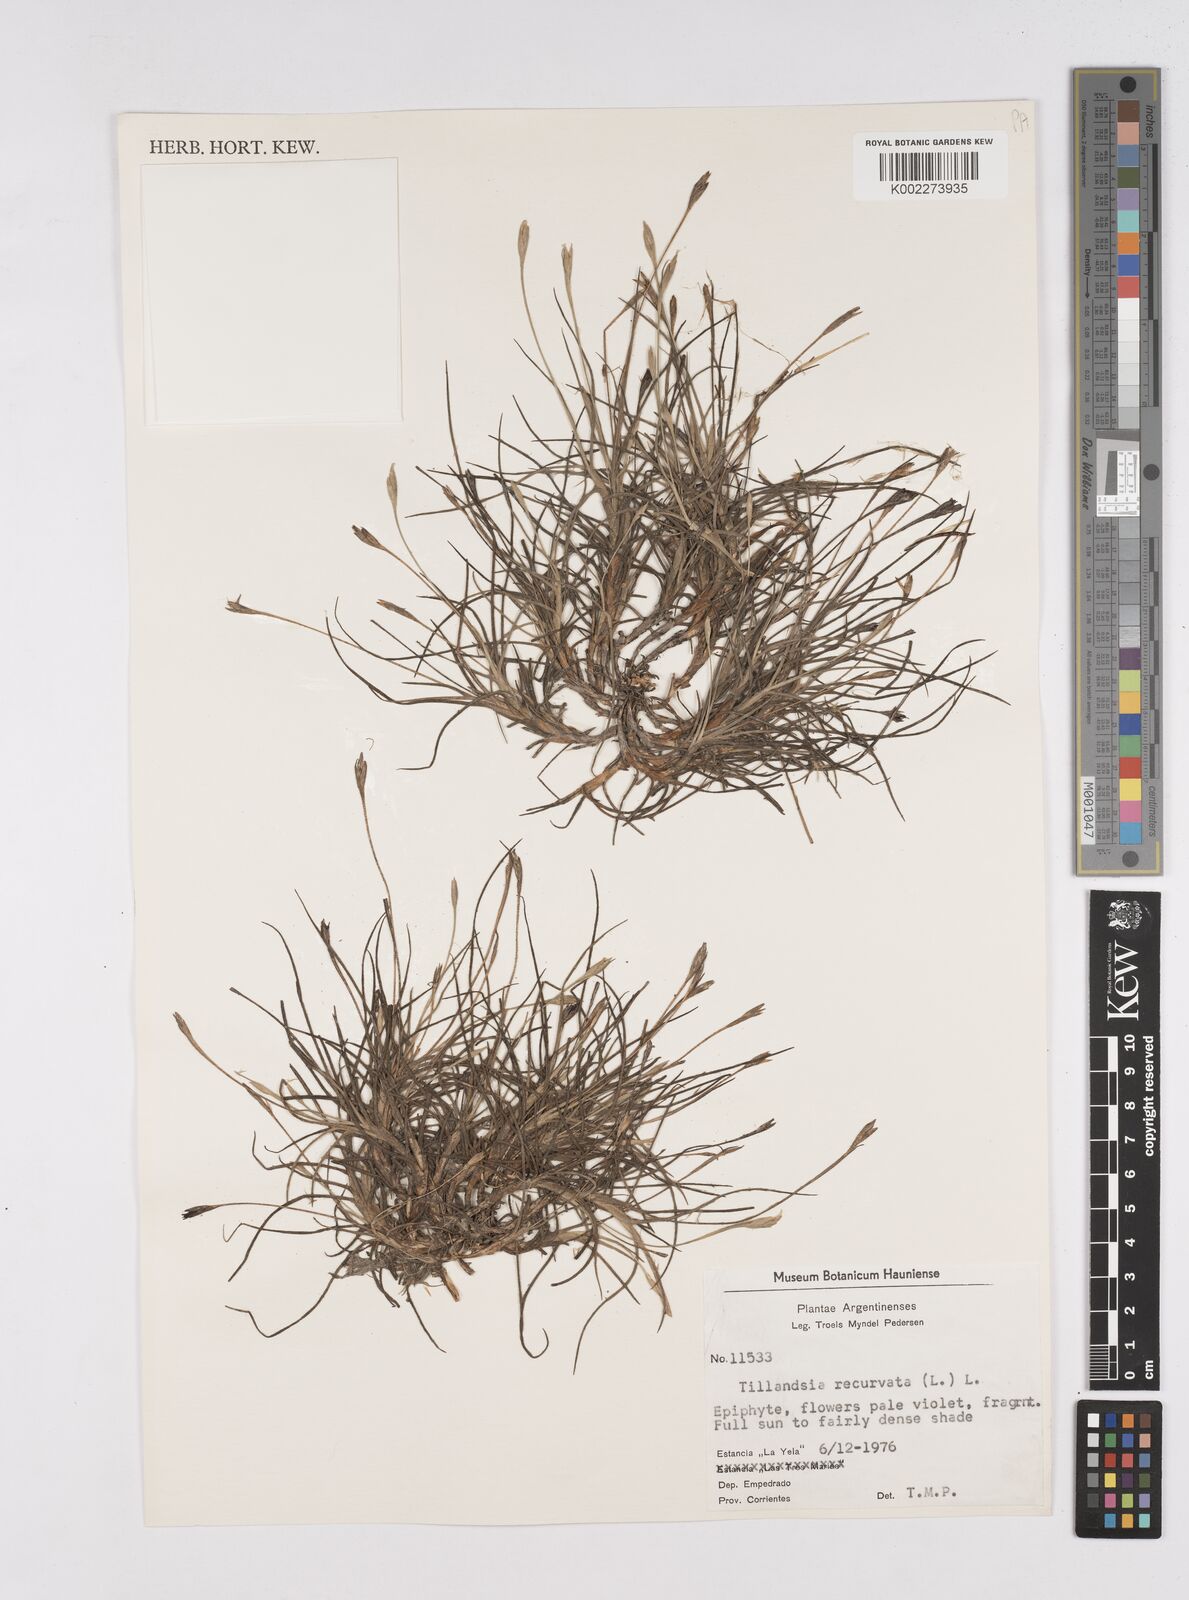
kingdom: Plantae
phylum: Tracheophyta
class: Liliopsida
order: Poales
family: Bromeliaceae
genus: Tillandsia
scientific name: Tillandsia recurvata
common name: Small ballmoss
